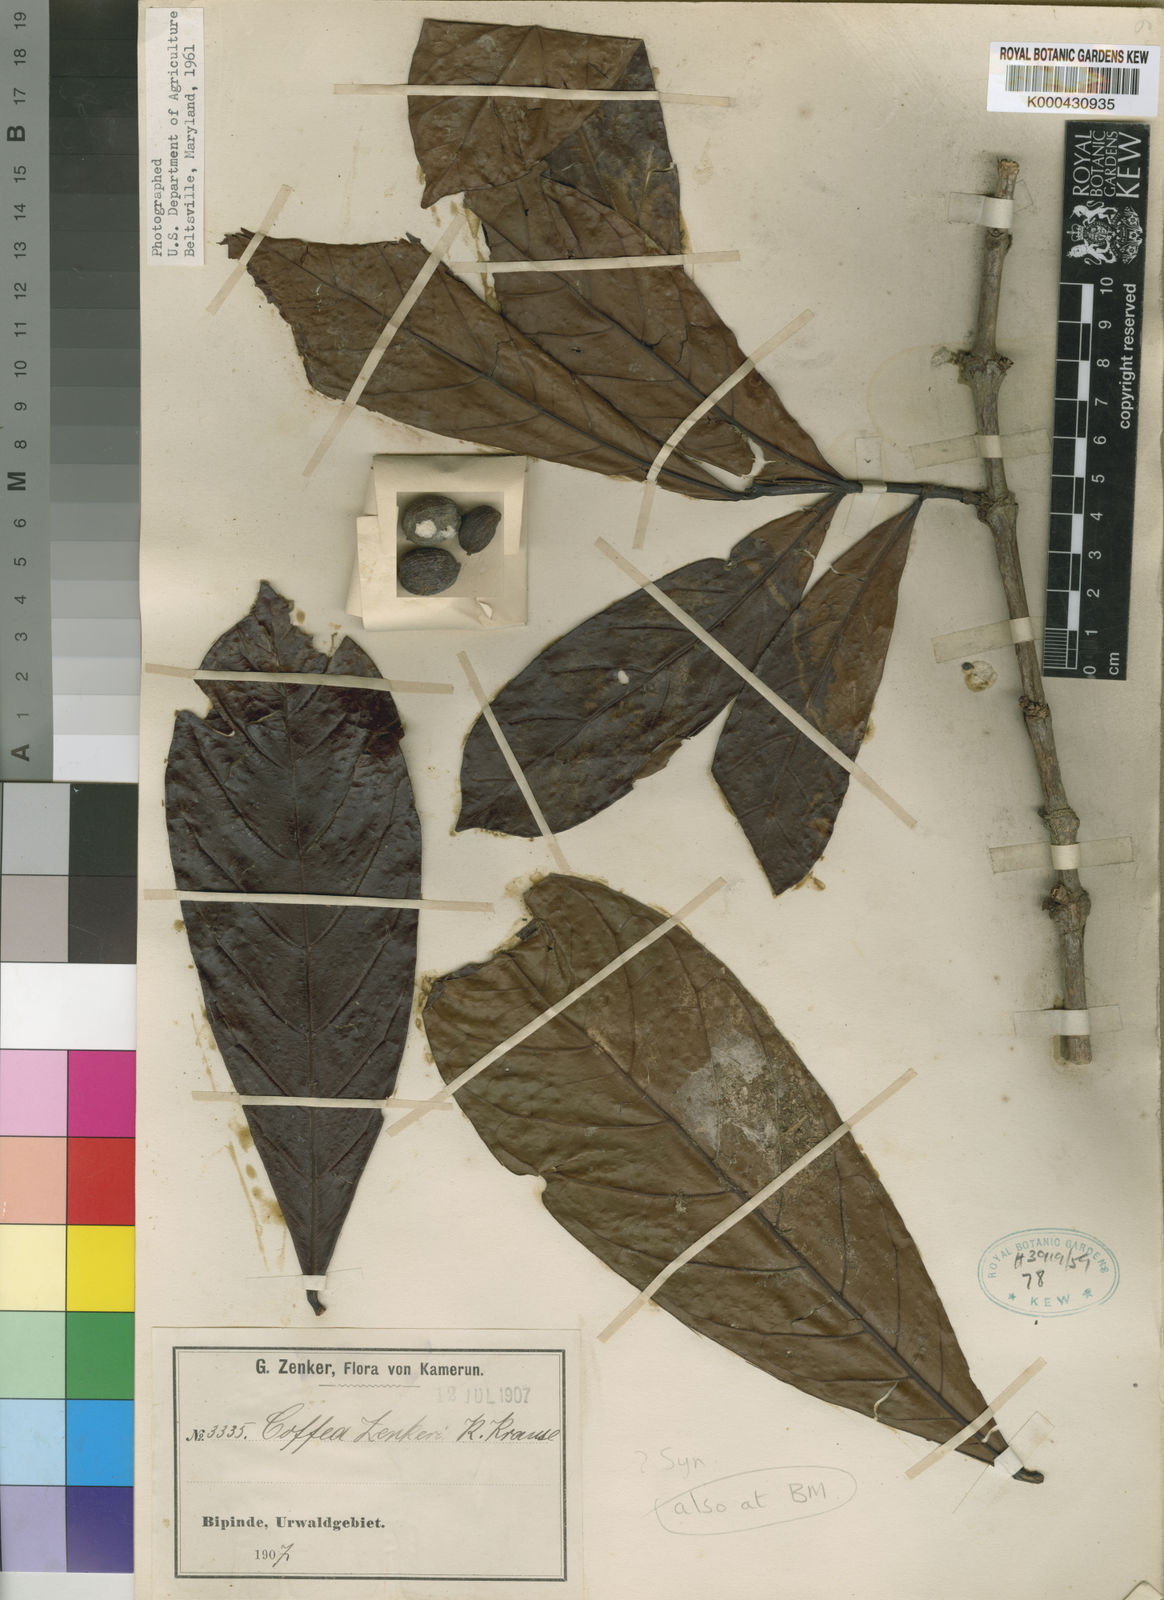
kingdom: Plantae
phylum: Tracheophyta
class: Magnoliopsida
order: Gentianales
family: Rubiaceae
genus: Coffea
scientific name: Coffea
